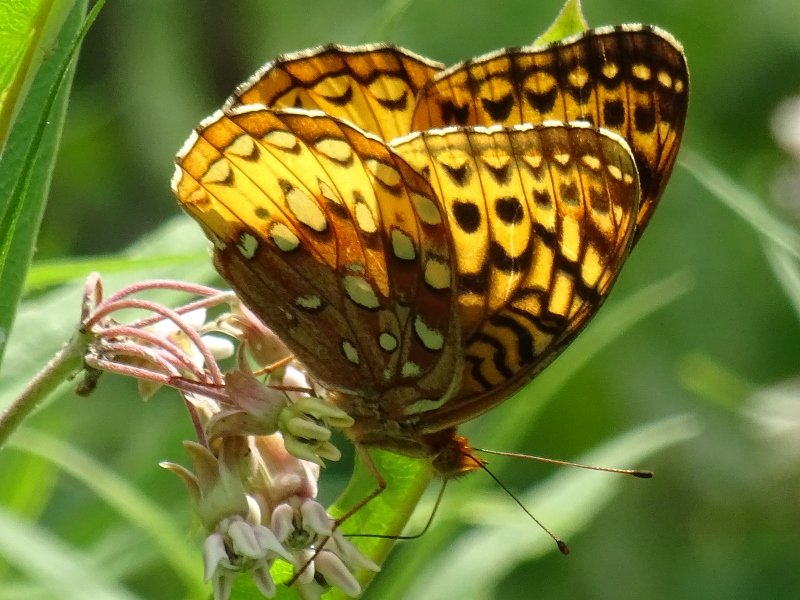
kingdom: Animalia
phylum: Arthropoda
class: Insecta
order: Lepidoptera
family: Nymphalidae
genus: Speyeria
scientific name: Speyeria cybele
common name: Great Spangled Fritillary
